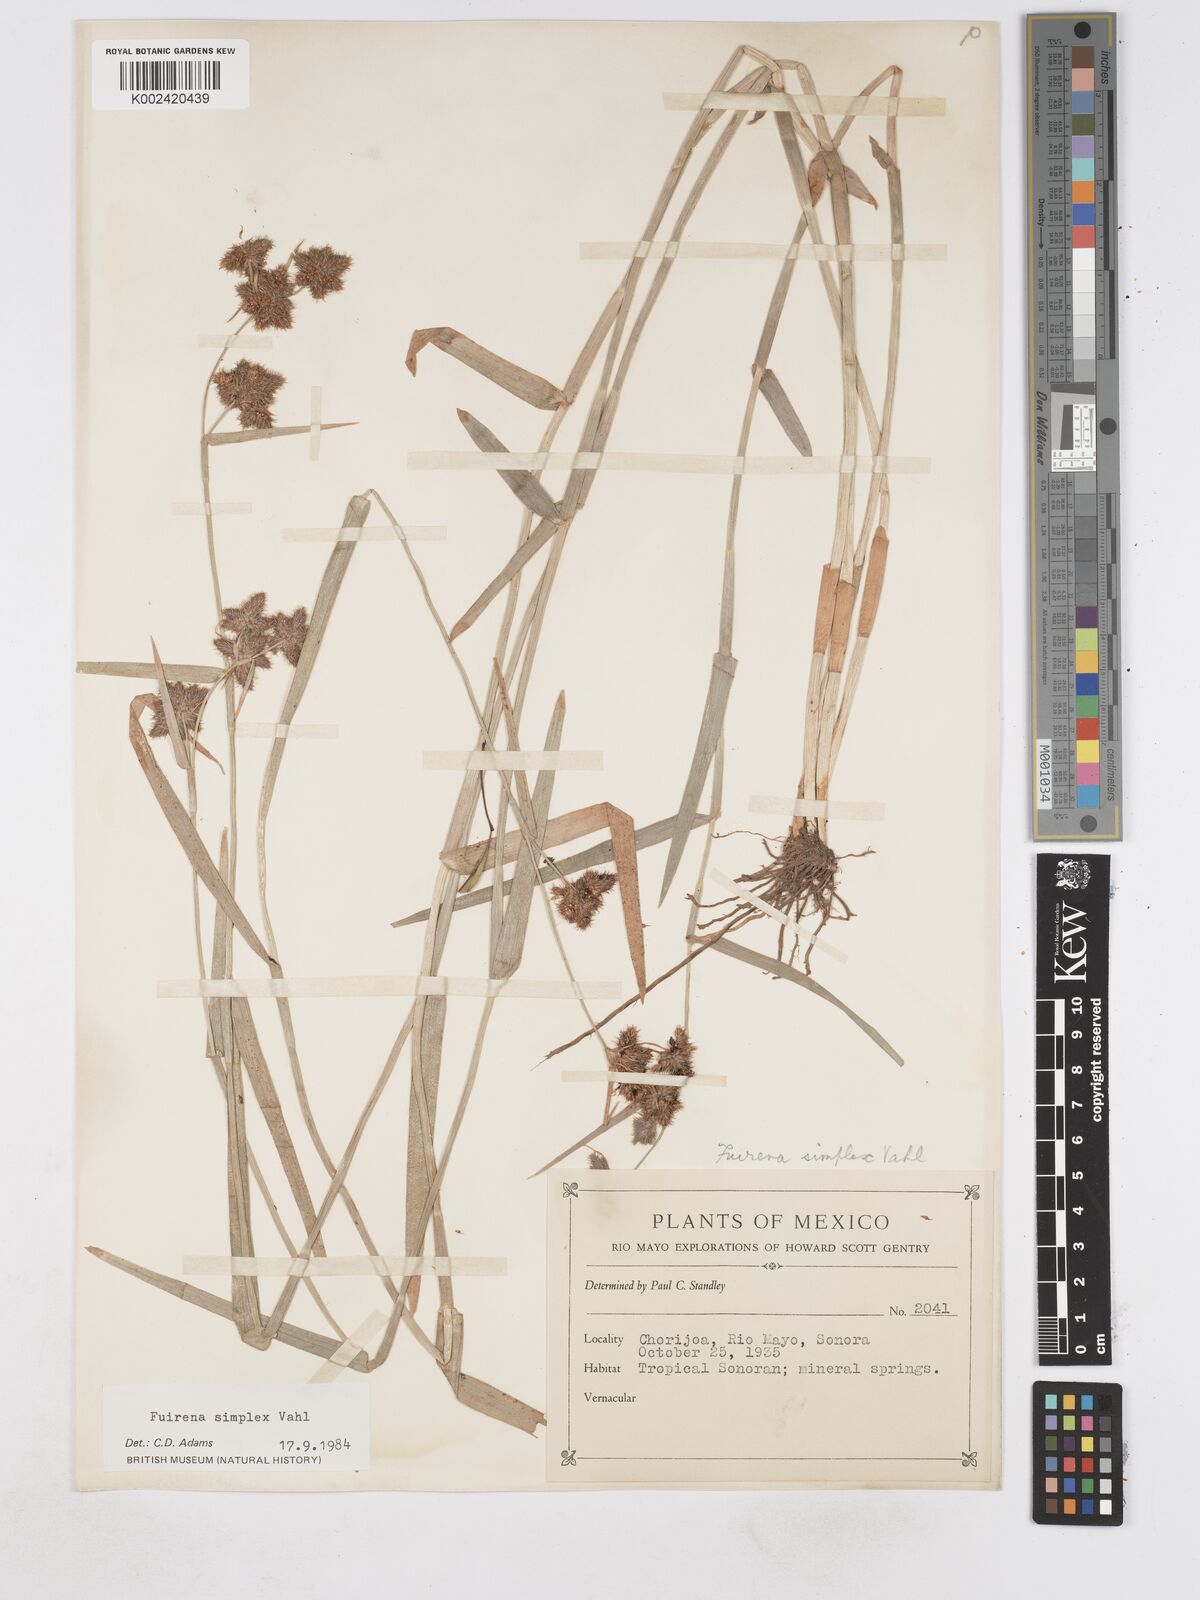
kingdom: Plantae
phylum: Tracheophyta
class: Liliopsida
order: Poales
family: Cyperaceae
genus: Fuirena
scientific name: Fuirena simplex
